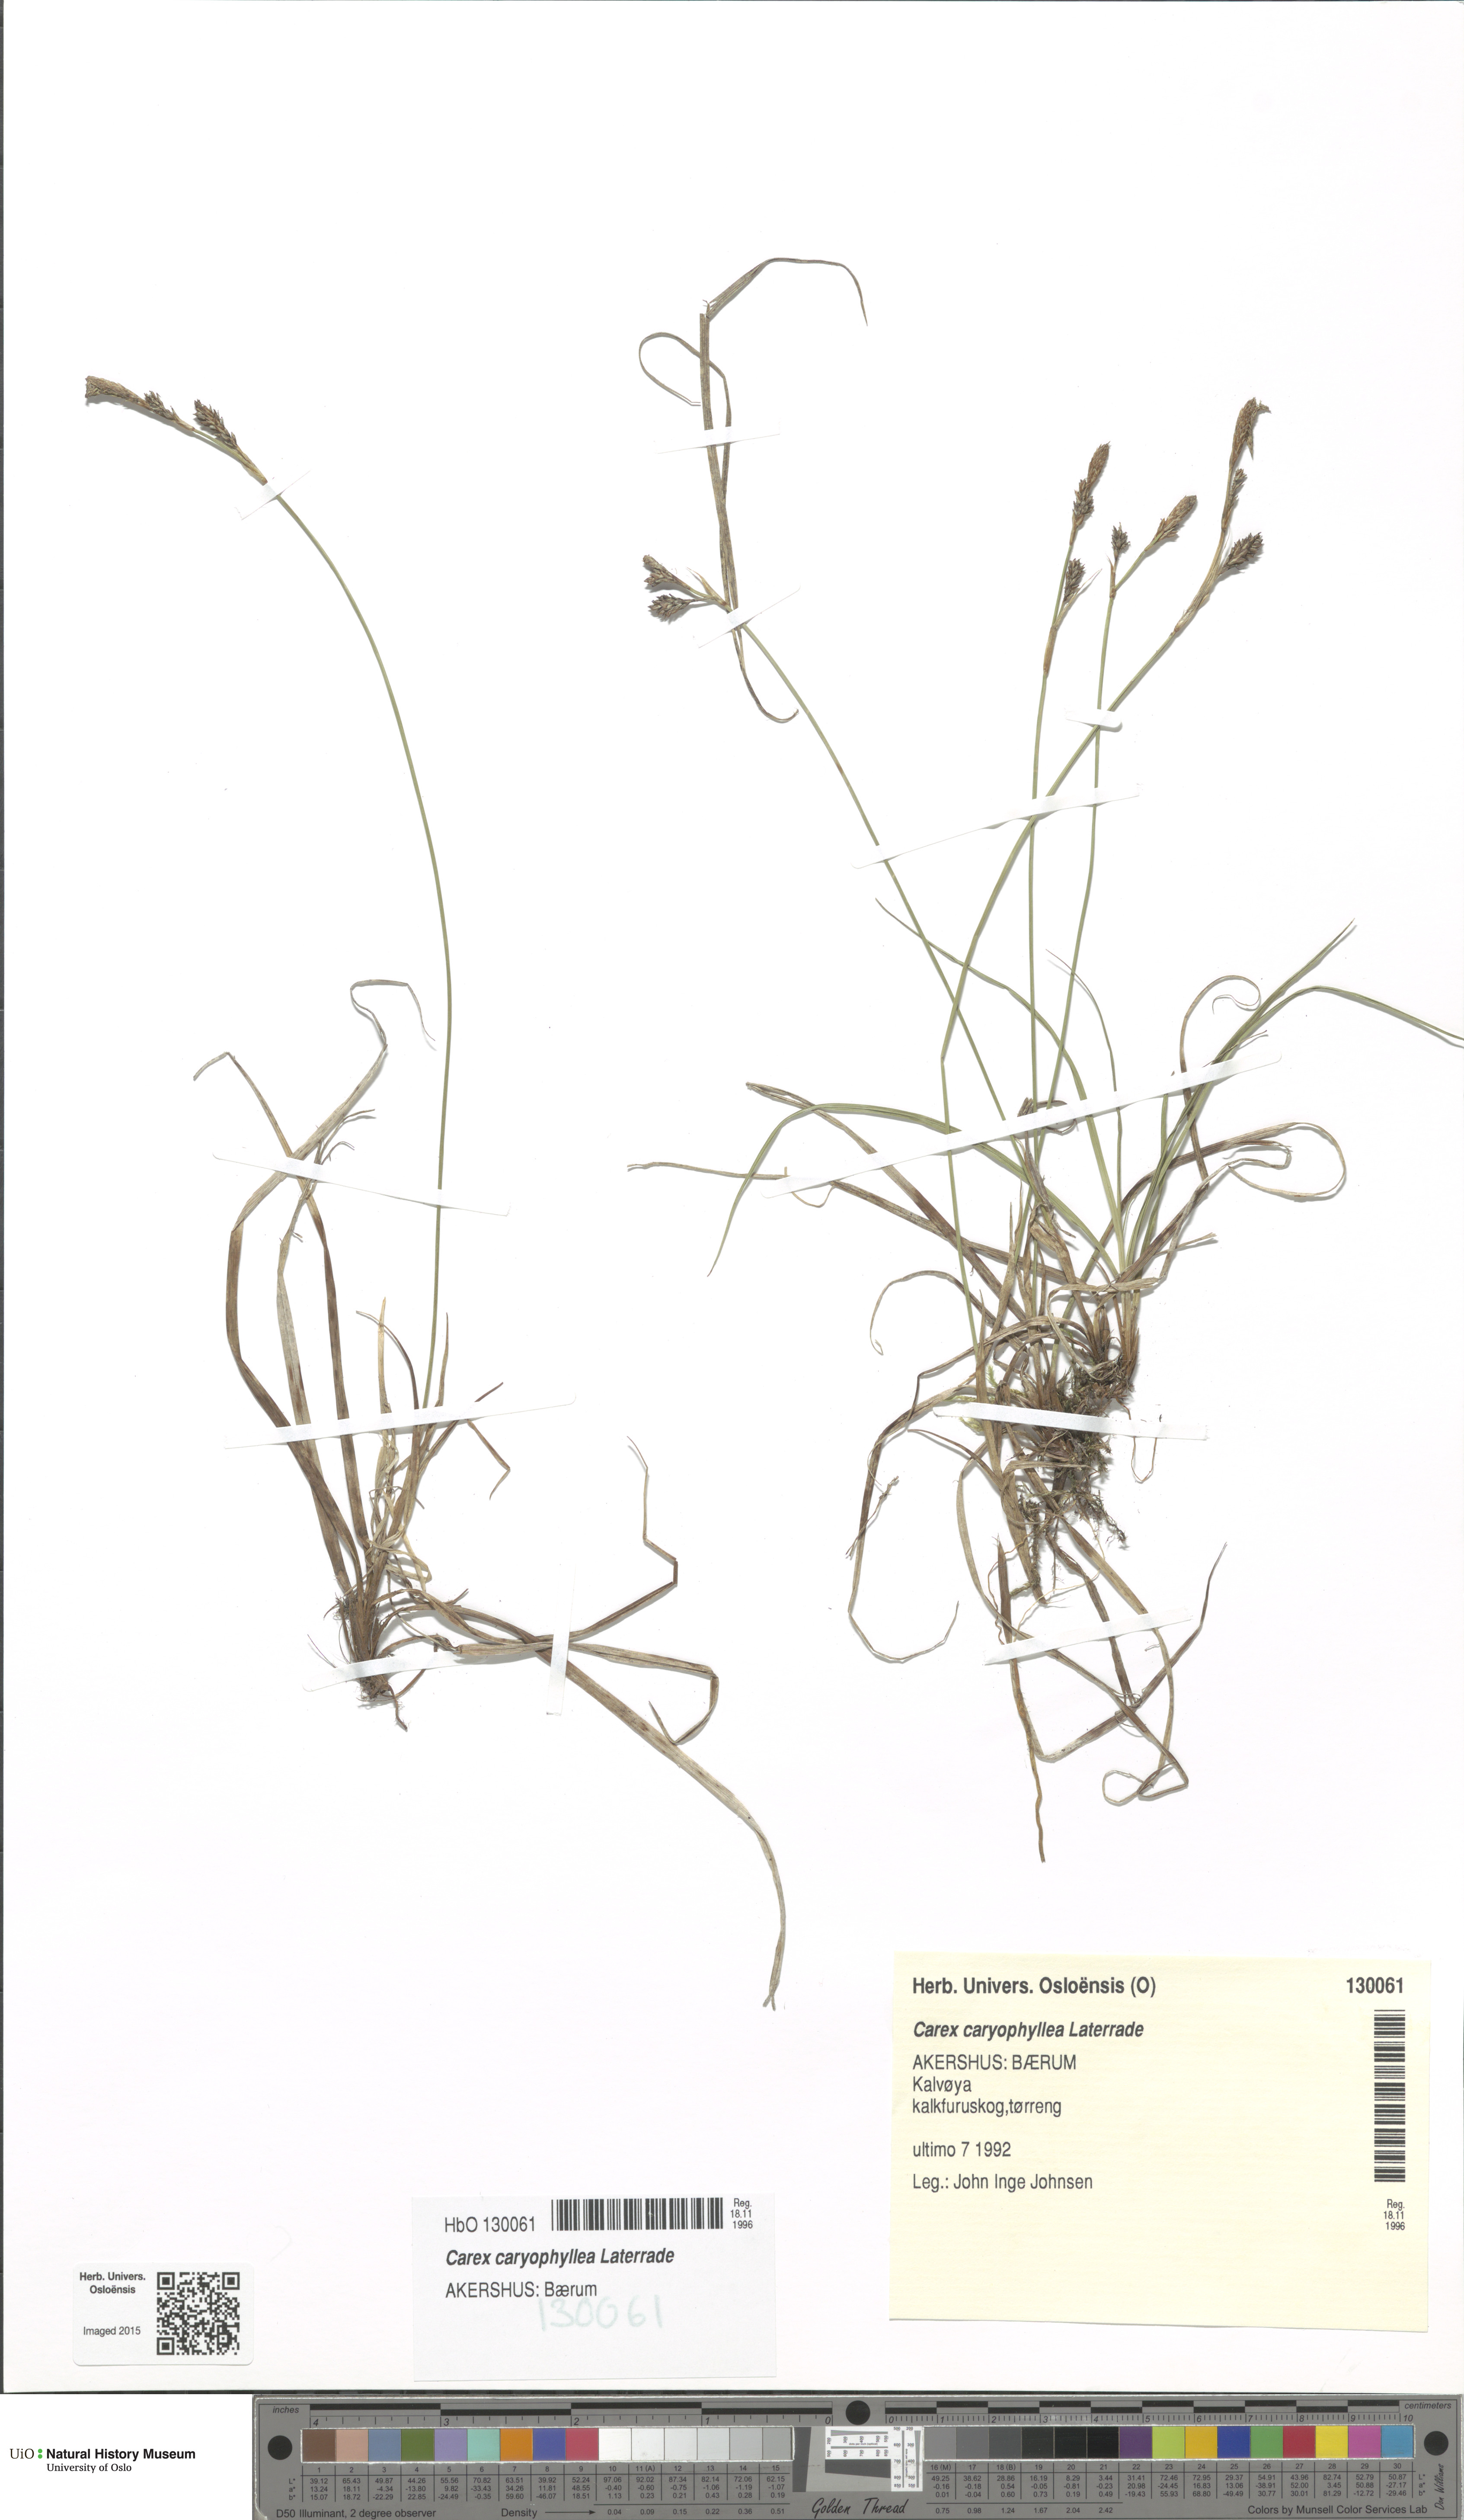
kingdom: Plantae
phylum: Tracheophyta
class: Liliopsida
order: Poales
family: Cyperaceae
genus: Carex
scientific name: Carex caryophyllea
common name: Spring sedge
